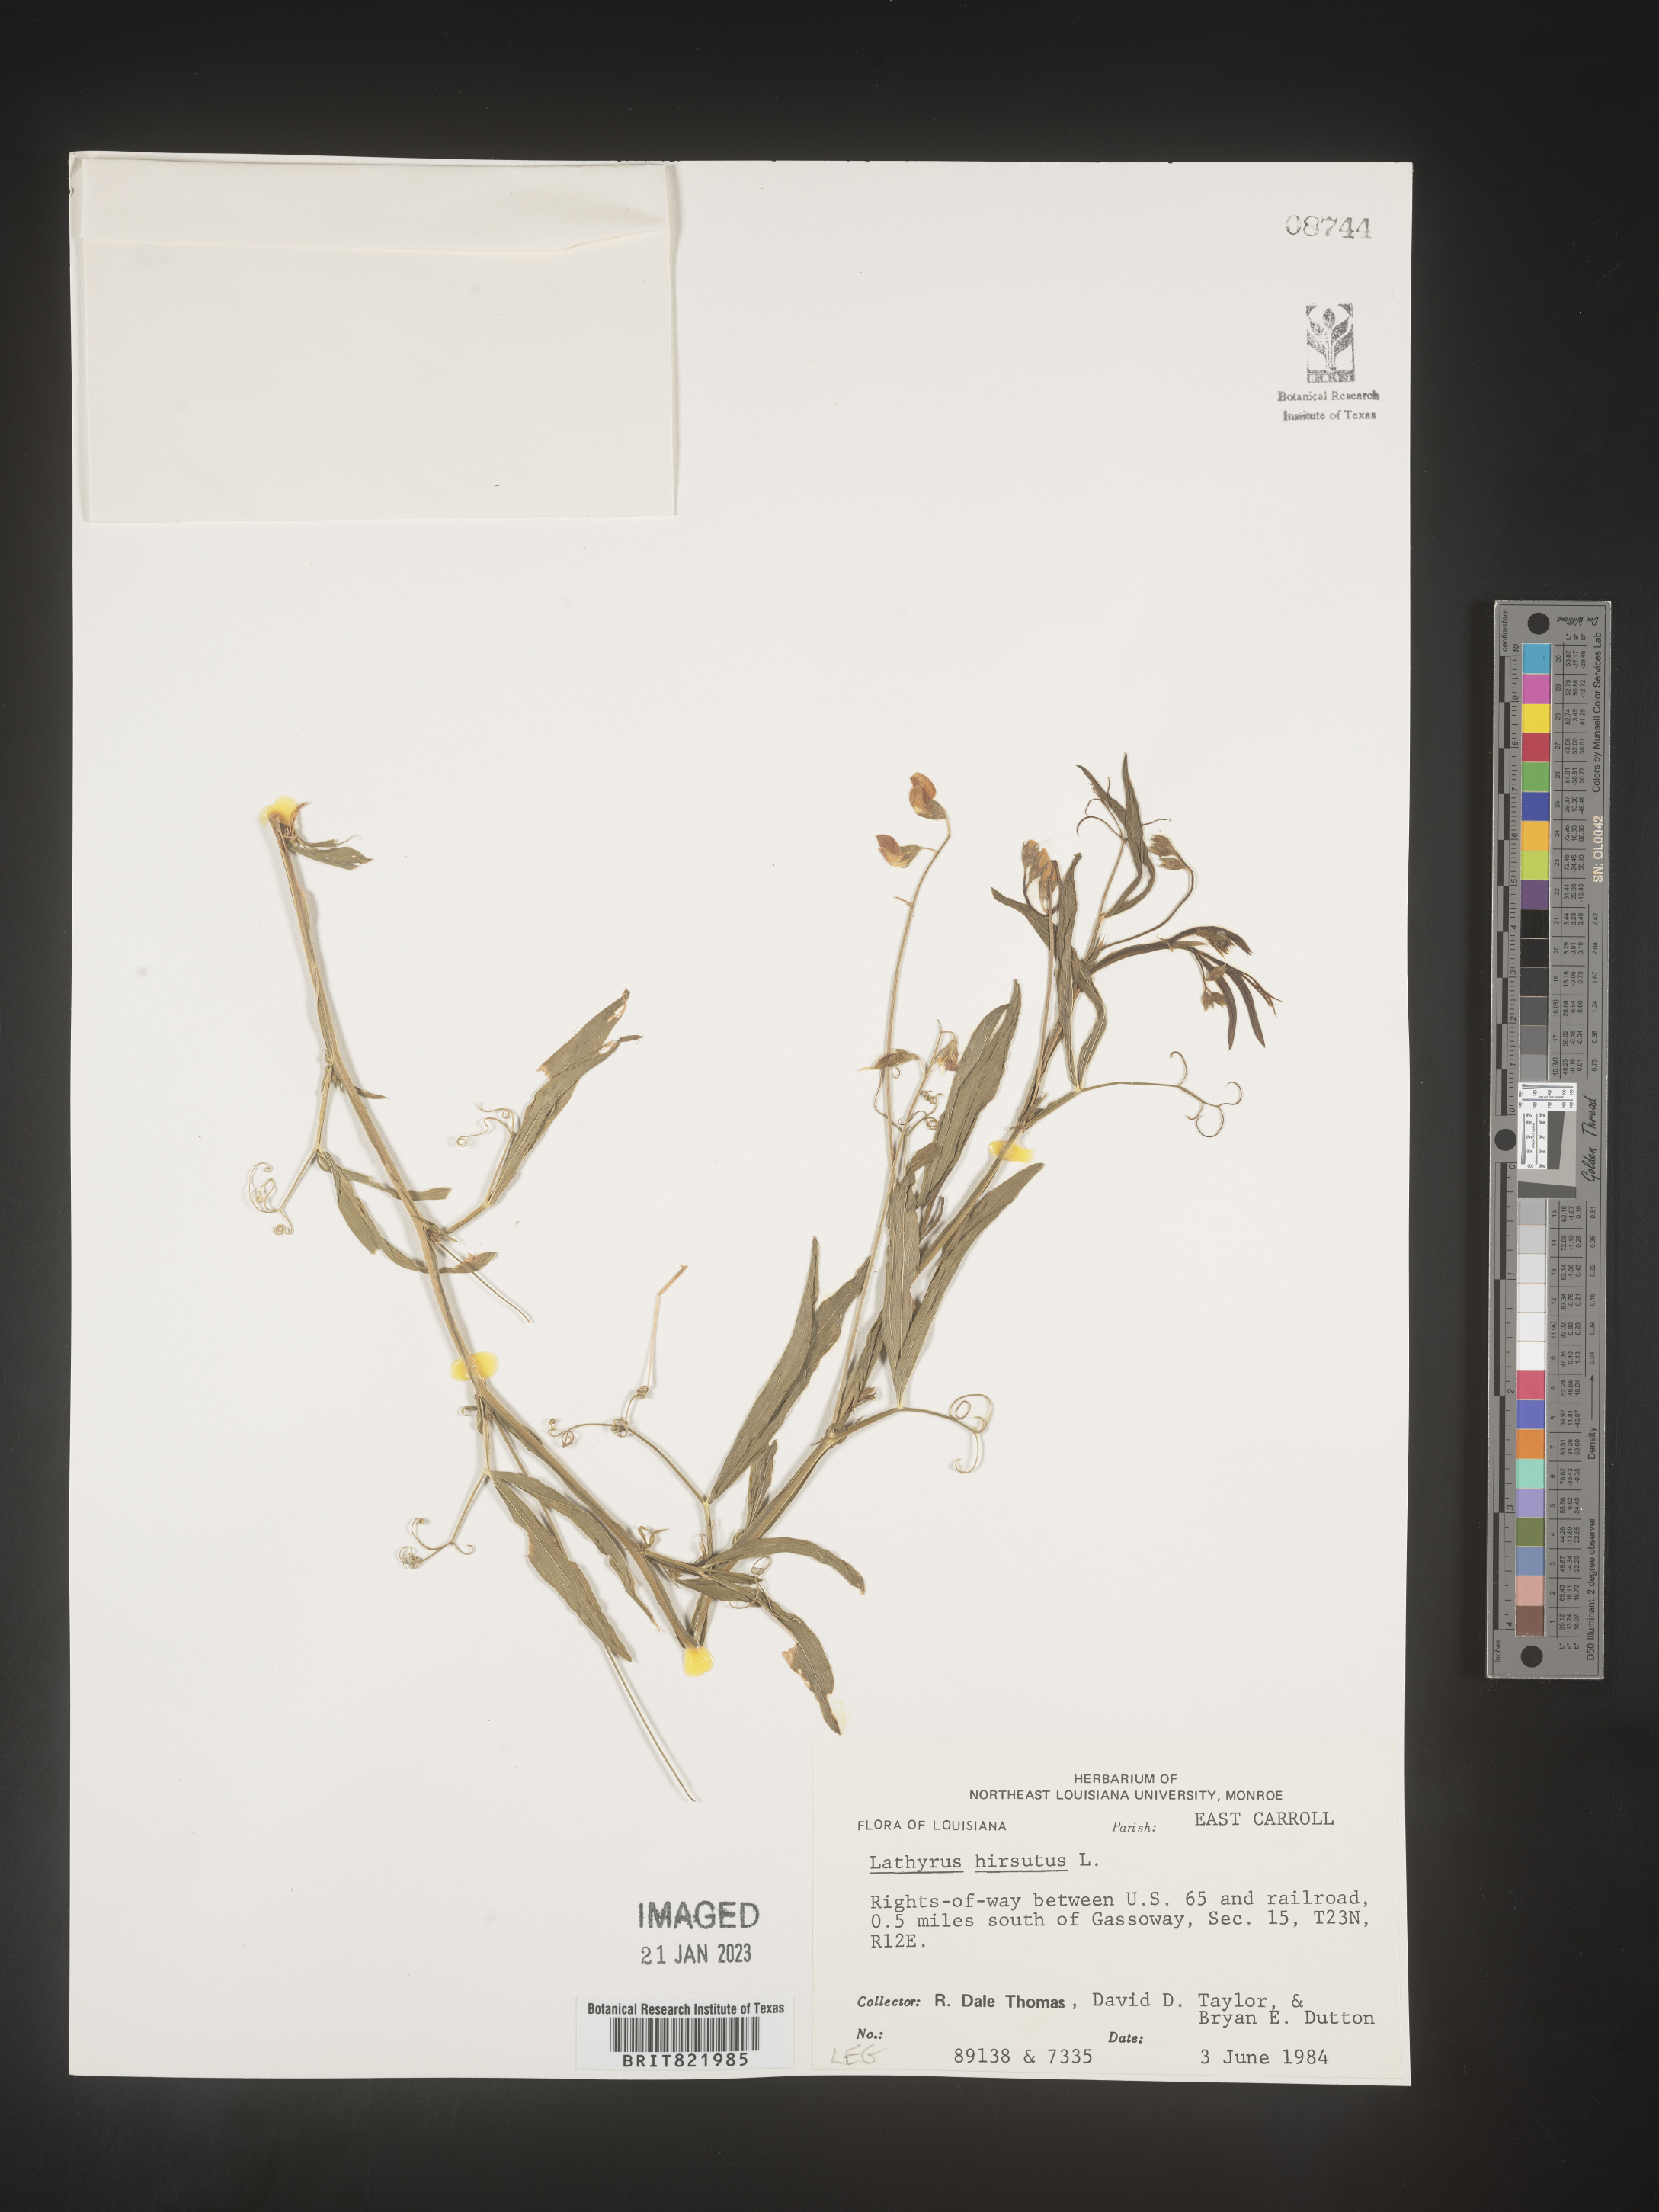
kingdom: Plantae
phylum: Tracheophyta
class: Magnoliopsida
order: Fabales
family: Fabaceae
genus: Lathyrus
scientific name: Lathyrus hirsutus
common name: Hairy vetchling
